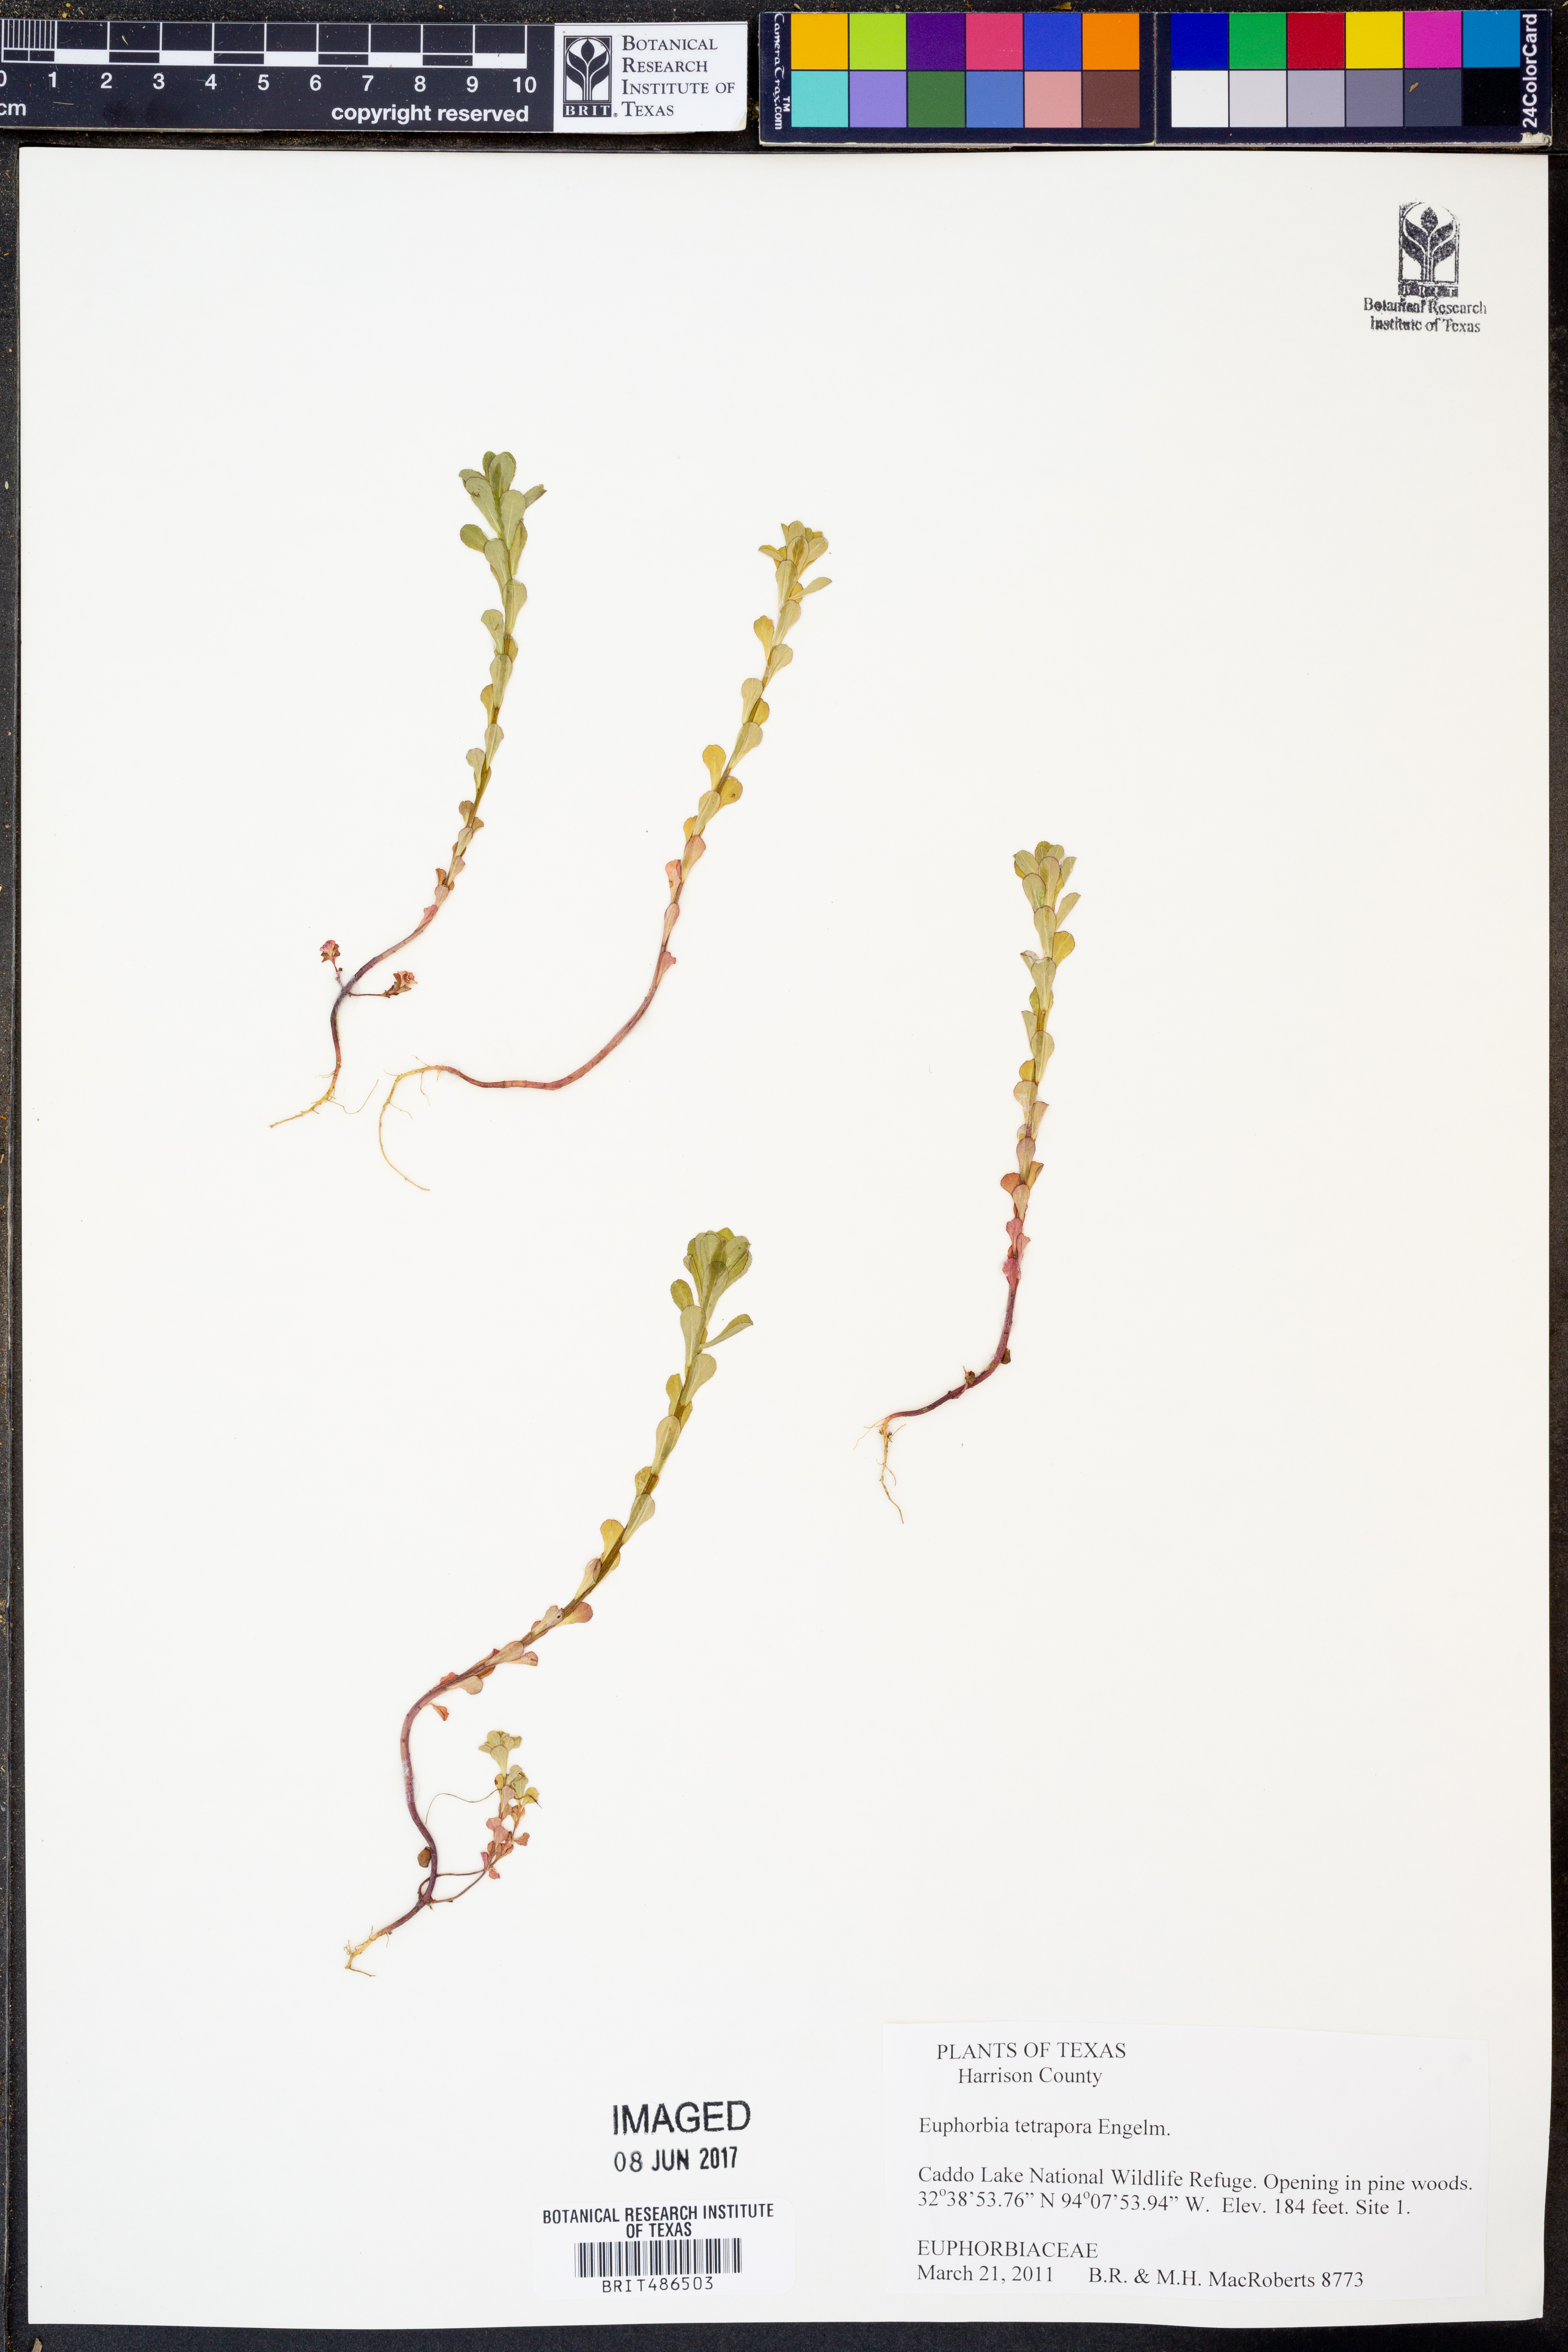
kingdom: Plantae
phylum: Tracheophyta
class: Magnoliopsida
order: Malpighiales
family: Euphorbiaceae
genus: Euphorbia
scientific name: Euphorbia tetrapora
